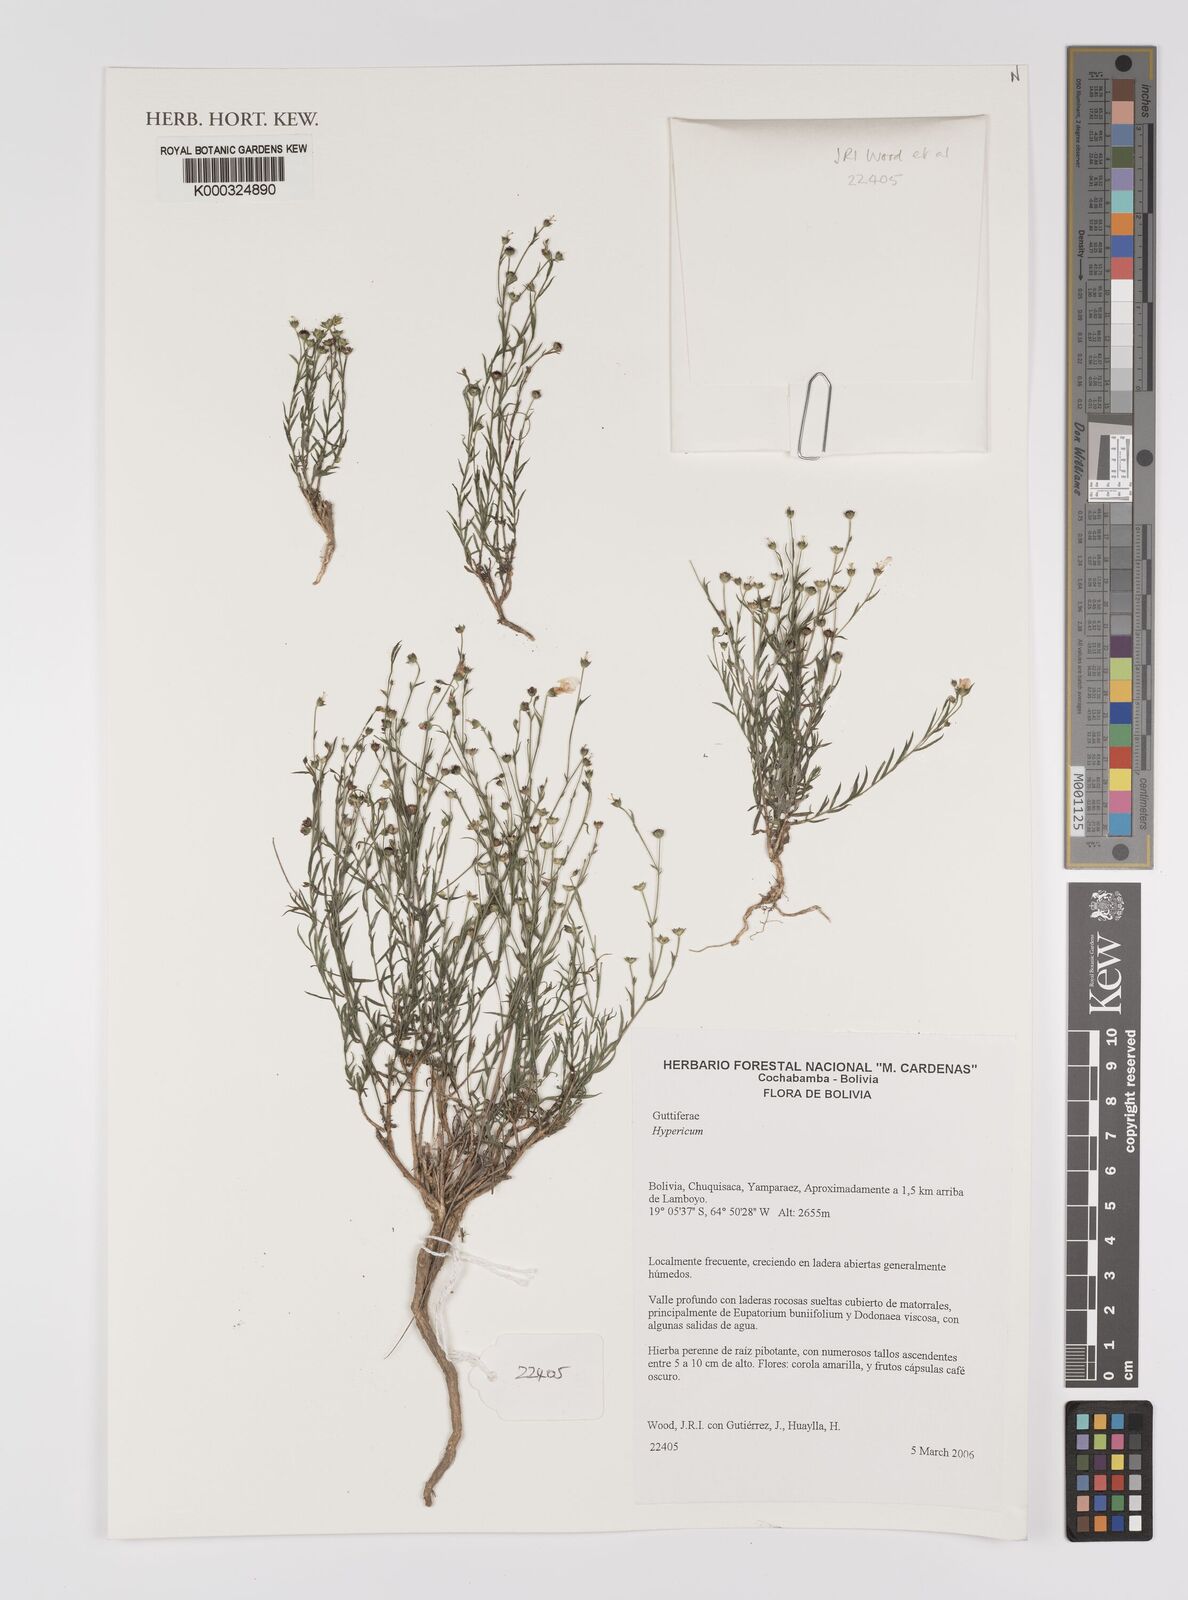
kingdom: Plantae
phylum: Tracheophyta
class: Magnoliopsida
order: Malpighiales
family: Hypericaceae
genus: Hypericum
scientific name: Hypericum
